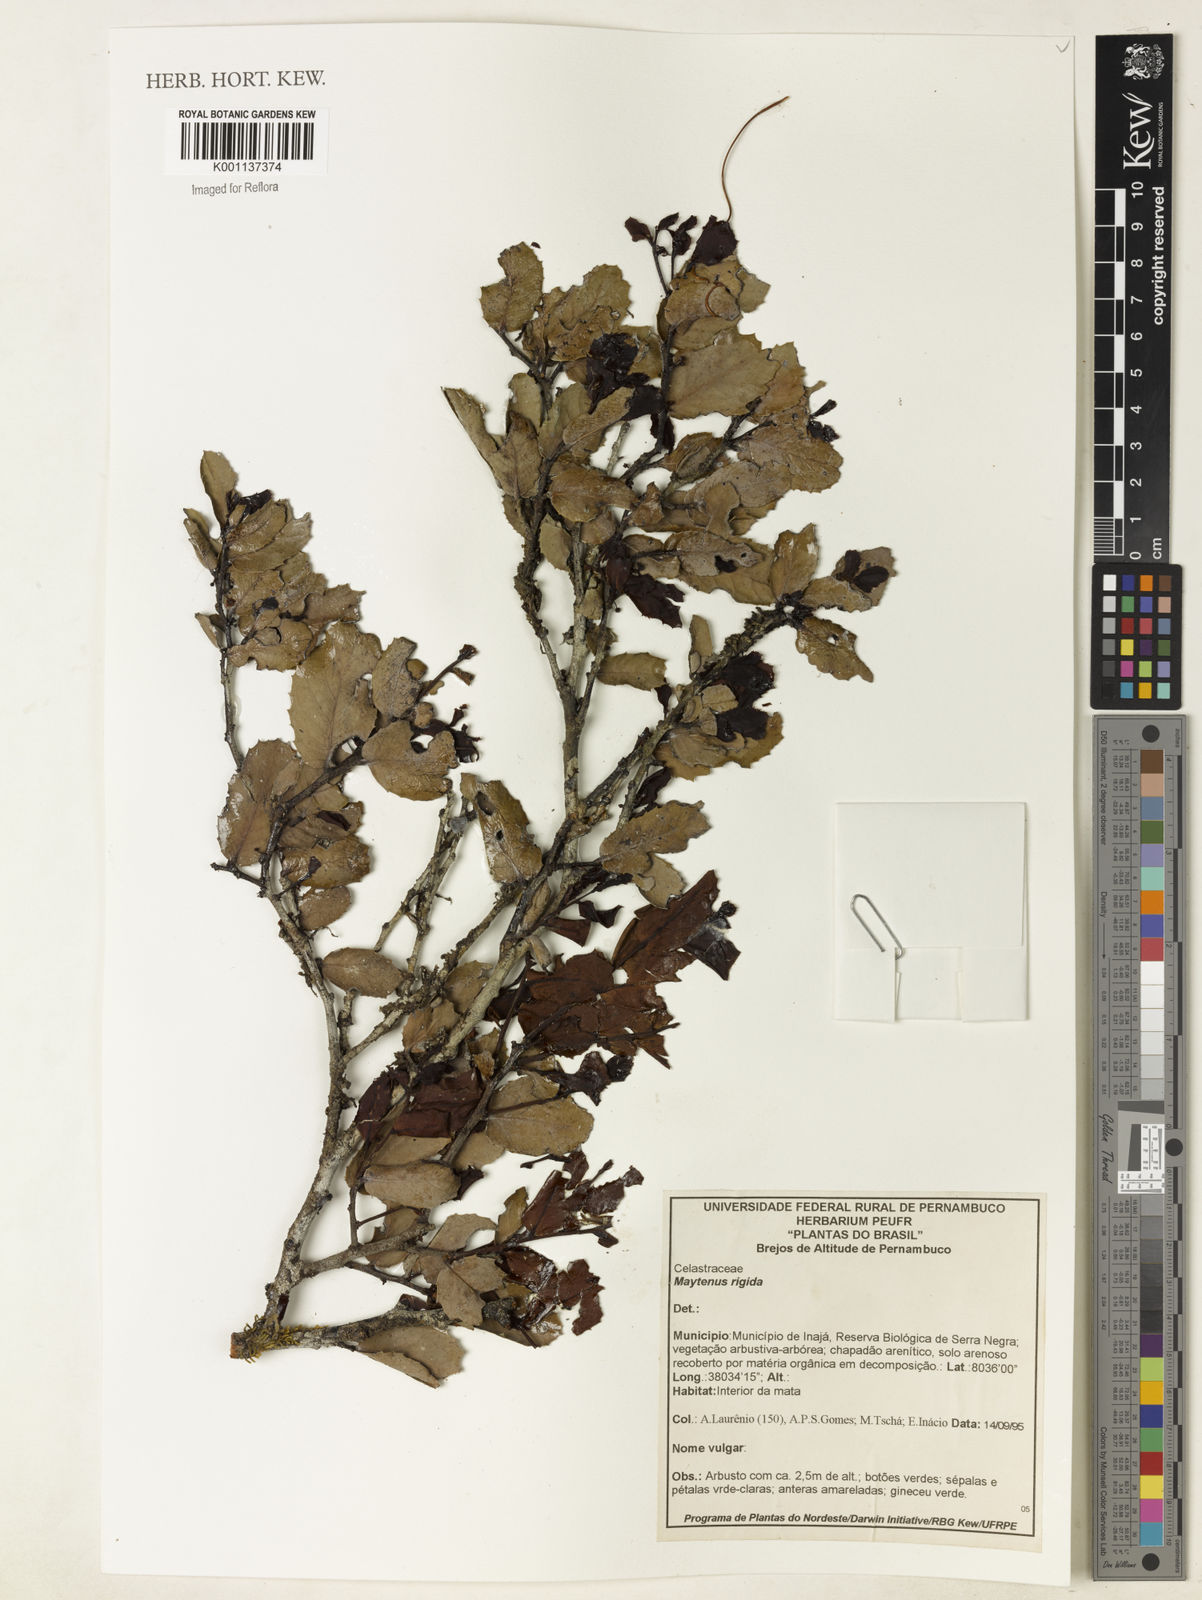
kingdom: Plantae
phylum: Tracheophyta
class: Magnoliopsida
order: Celastrales
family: Celastraceae
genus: Monteverdia
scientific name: Monteverdia rigida
